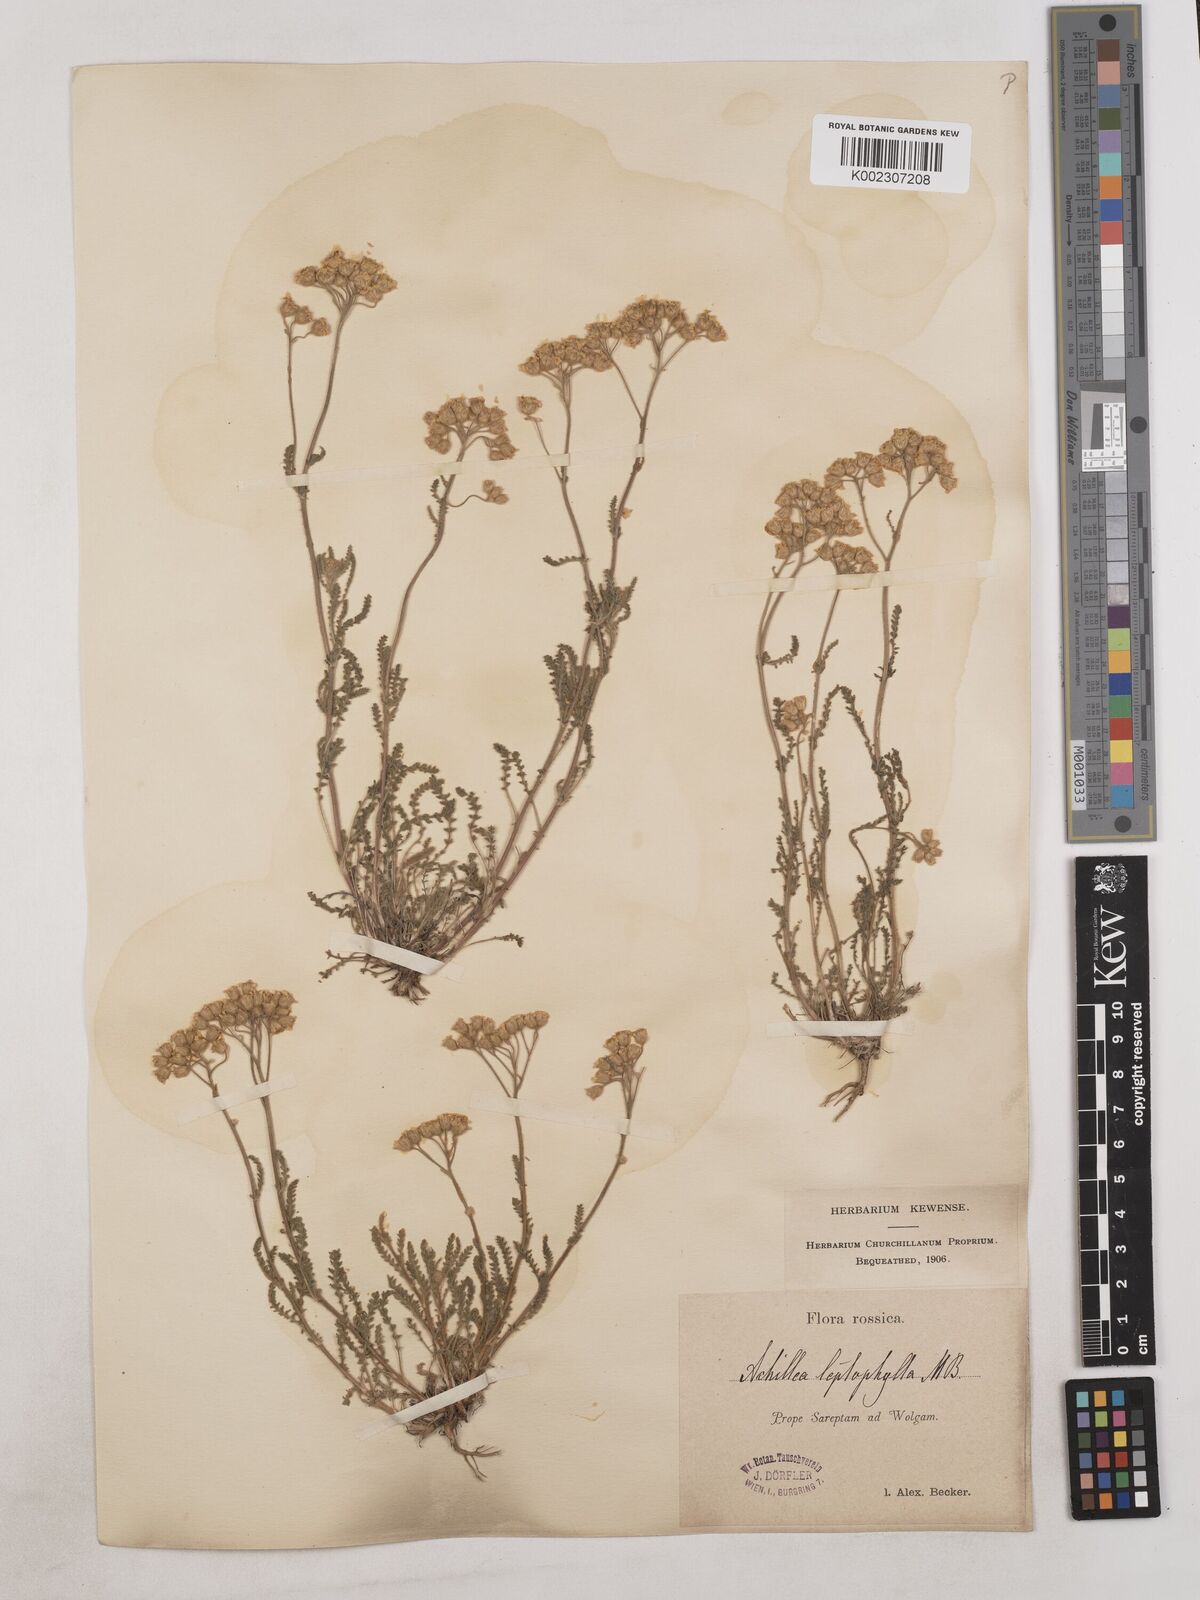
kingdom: Plantae
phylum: Tracheophyta
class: Magnoliopsida
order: Asterales
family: Asteraceae
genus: Achillea
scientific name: Achillea leptophylla
